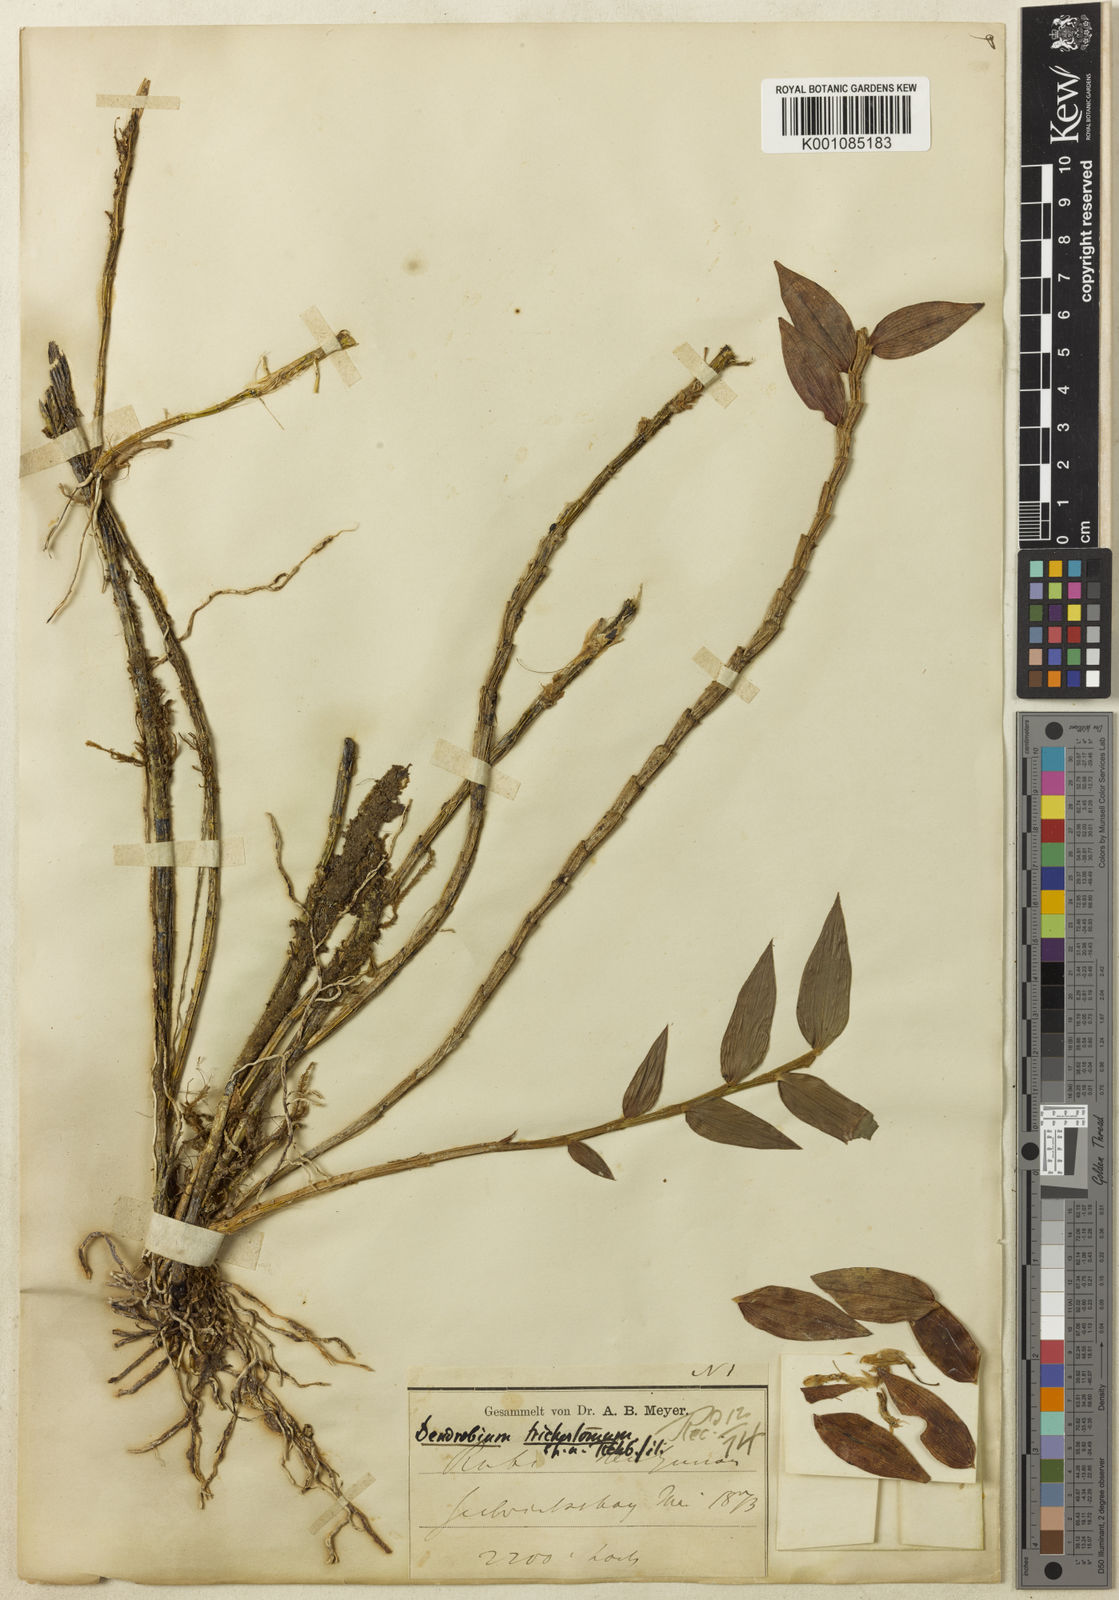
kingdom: Plantae
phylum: Tracheophyta
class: Liliopsida
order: Asparagales
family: Orchidaceae
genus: Dendrobium
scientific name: Dendrobium trichostomum
